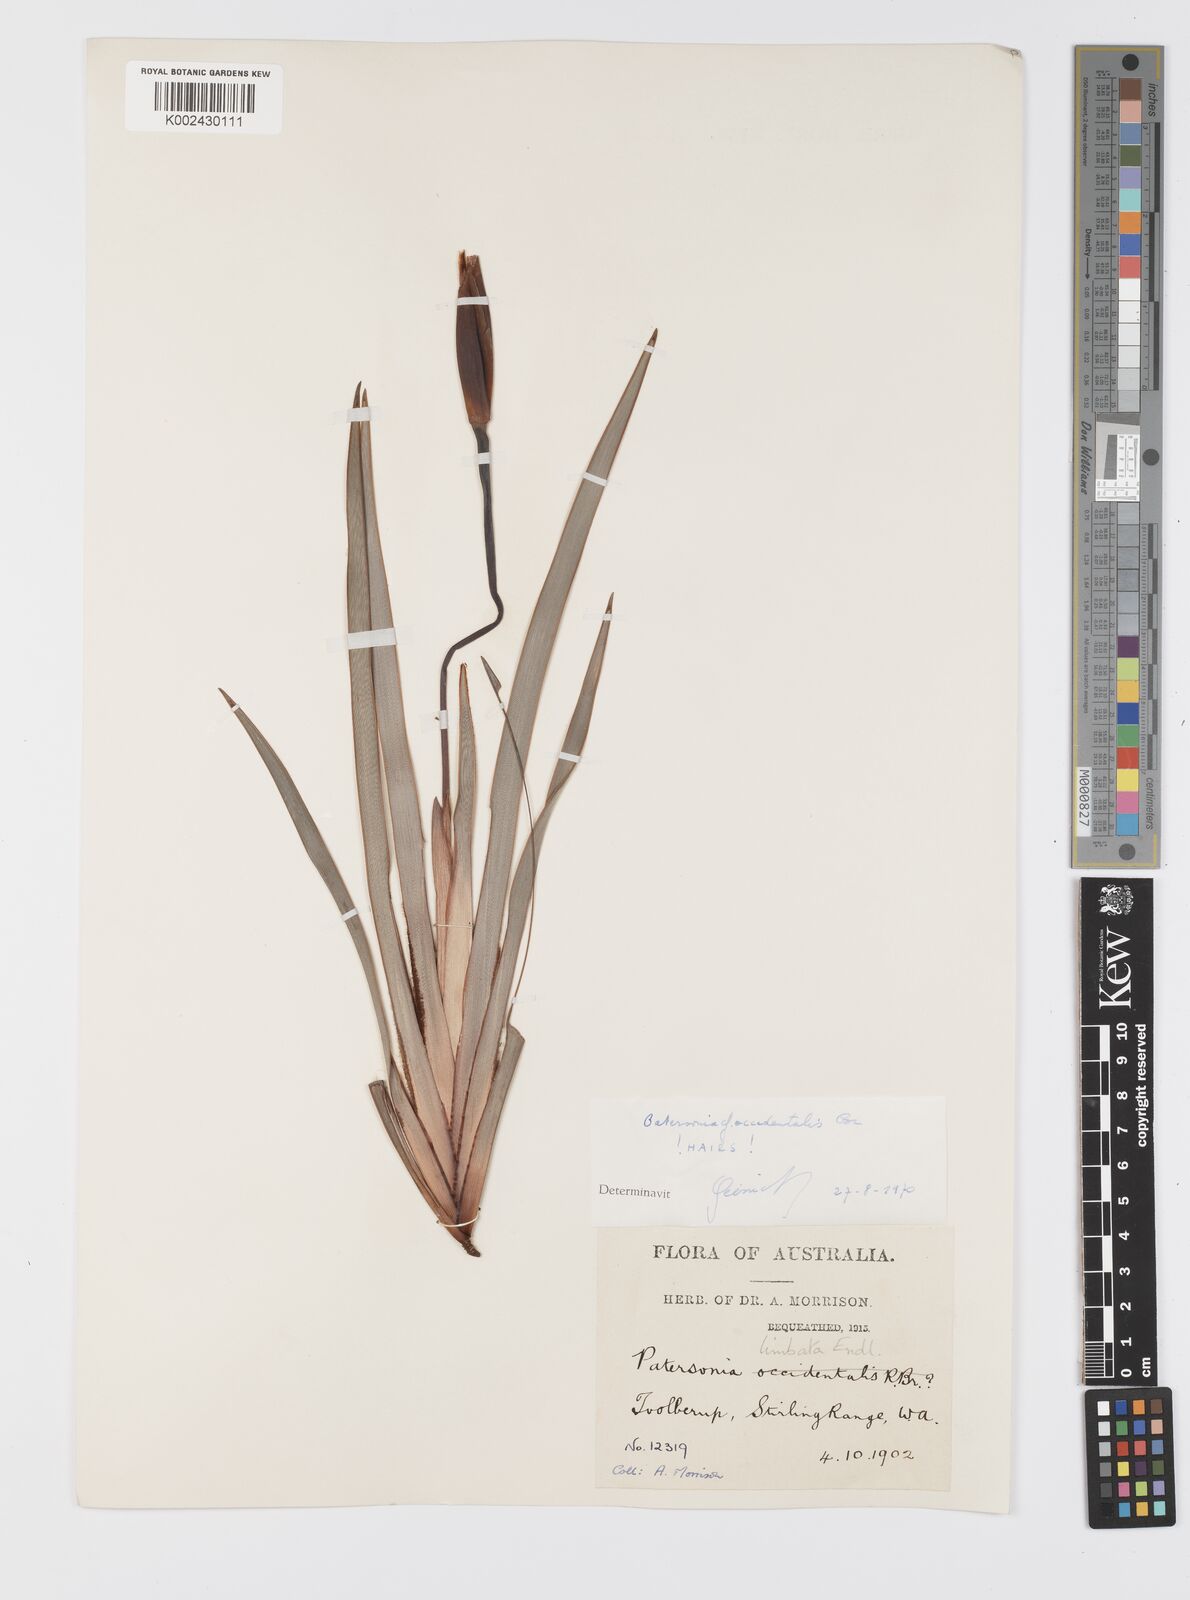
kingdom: Plantae
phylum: Tracheophyta
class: Liliopsida
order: Asparagales
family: Iridaceae
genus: Patersonia
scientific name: Patersonia limbata
